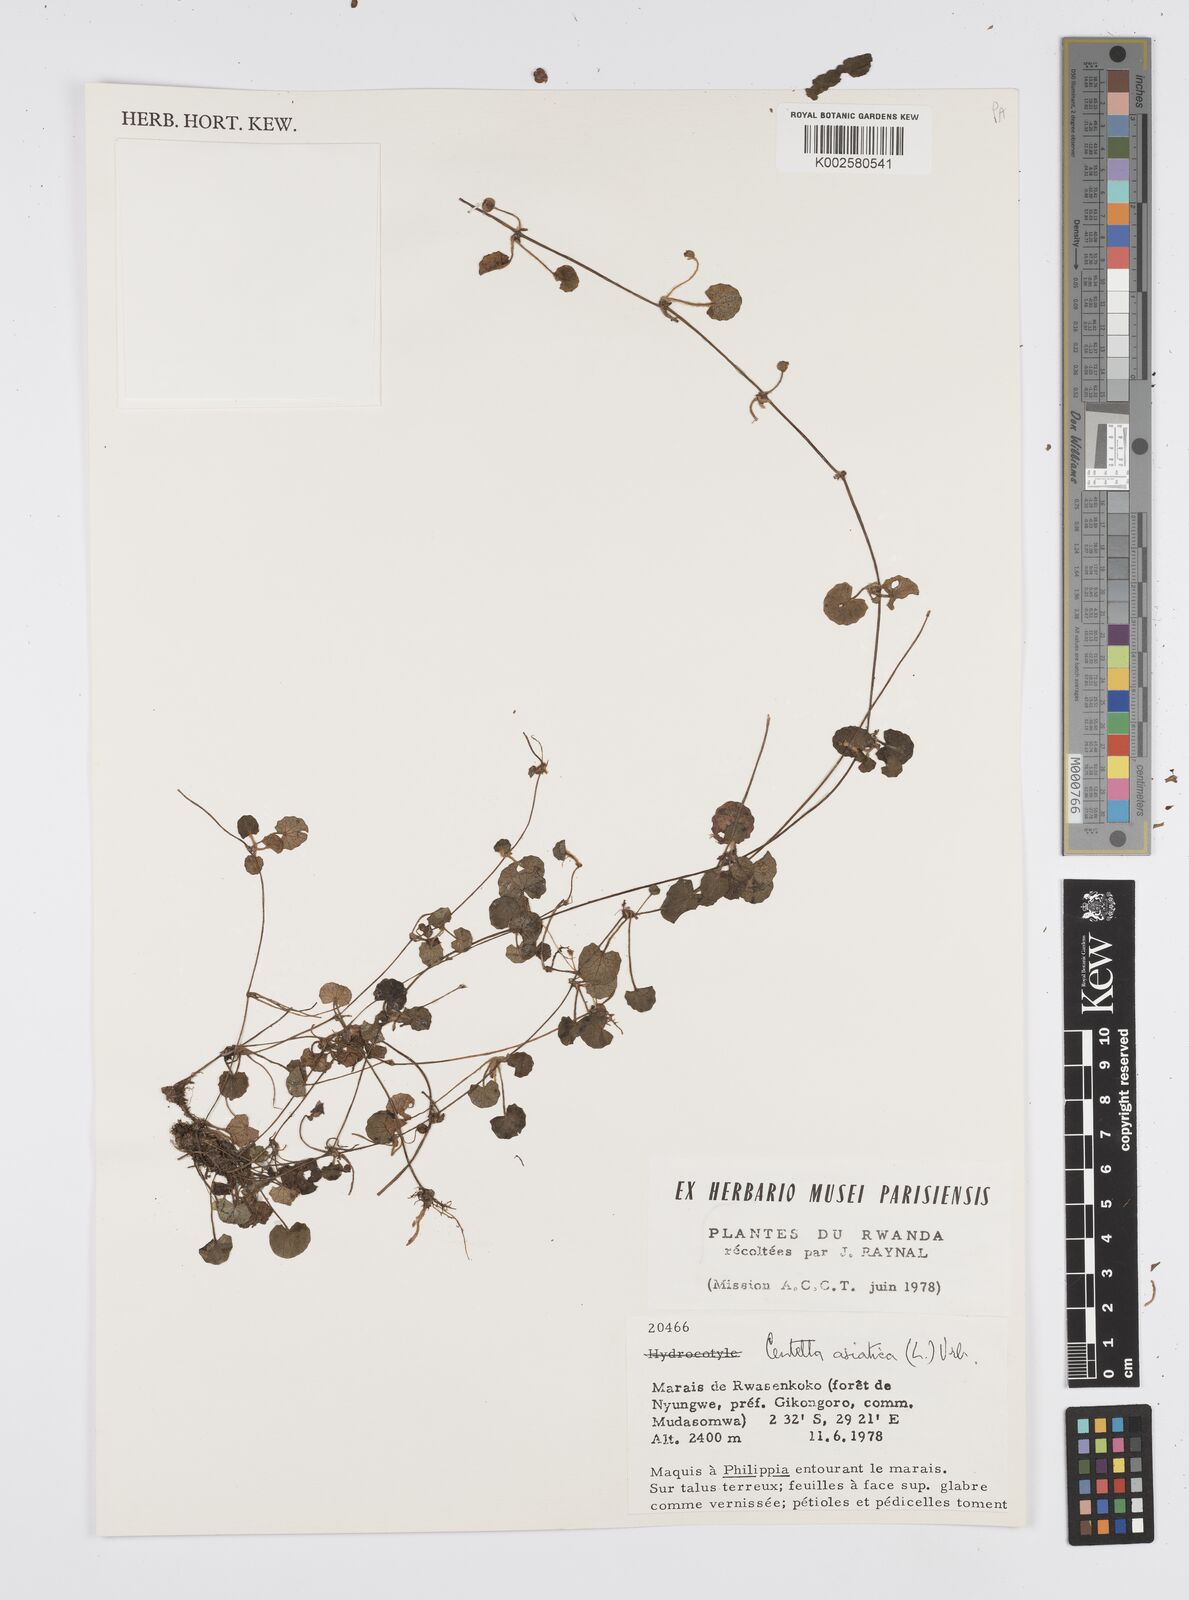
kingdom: Plantae
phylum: Tracheophyta
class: Magnoliopsida
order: Apiales
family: Apiaceae
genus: Centella
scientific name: Centella asiatica
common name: Spadeleaf
